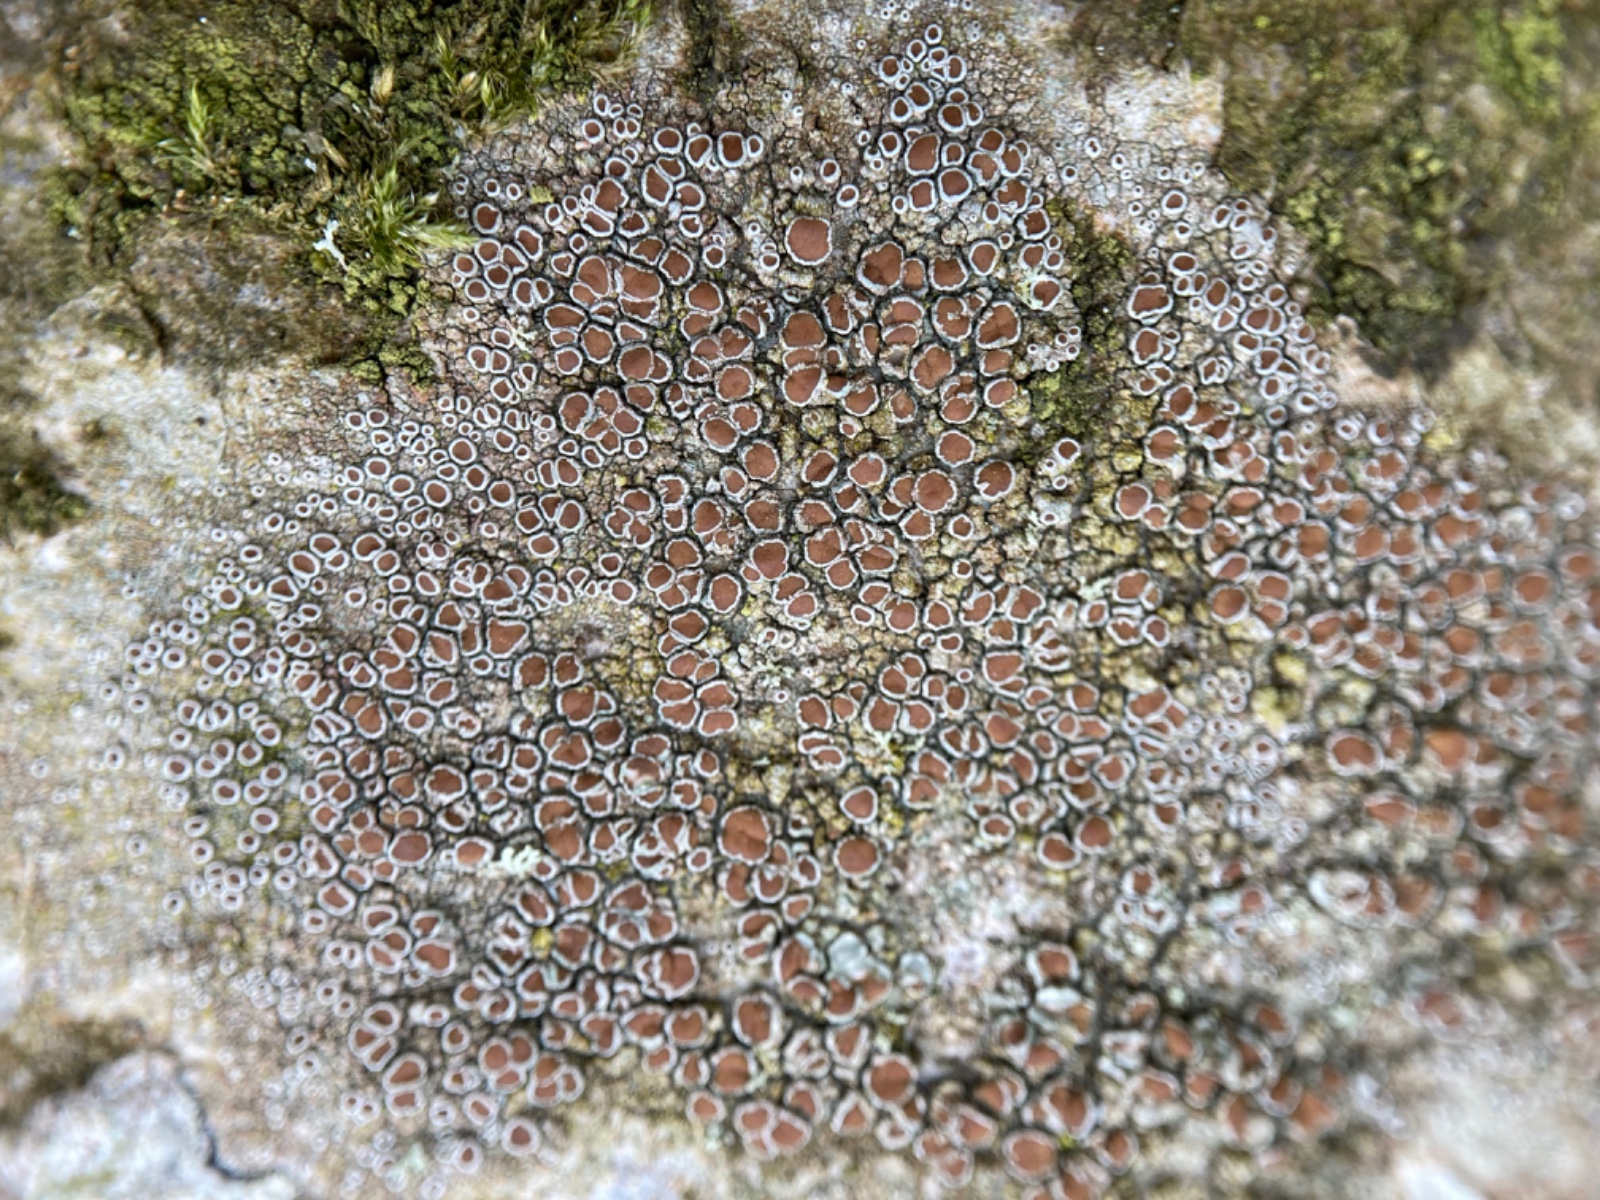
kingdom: Fungi
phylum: Ascomycota
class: Lecanoromycetes
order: Lecanorales
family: Lecanoraceae
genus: Lecanora
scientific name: Lecanora chlarotera
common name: brun kantskivelav
